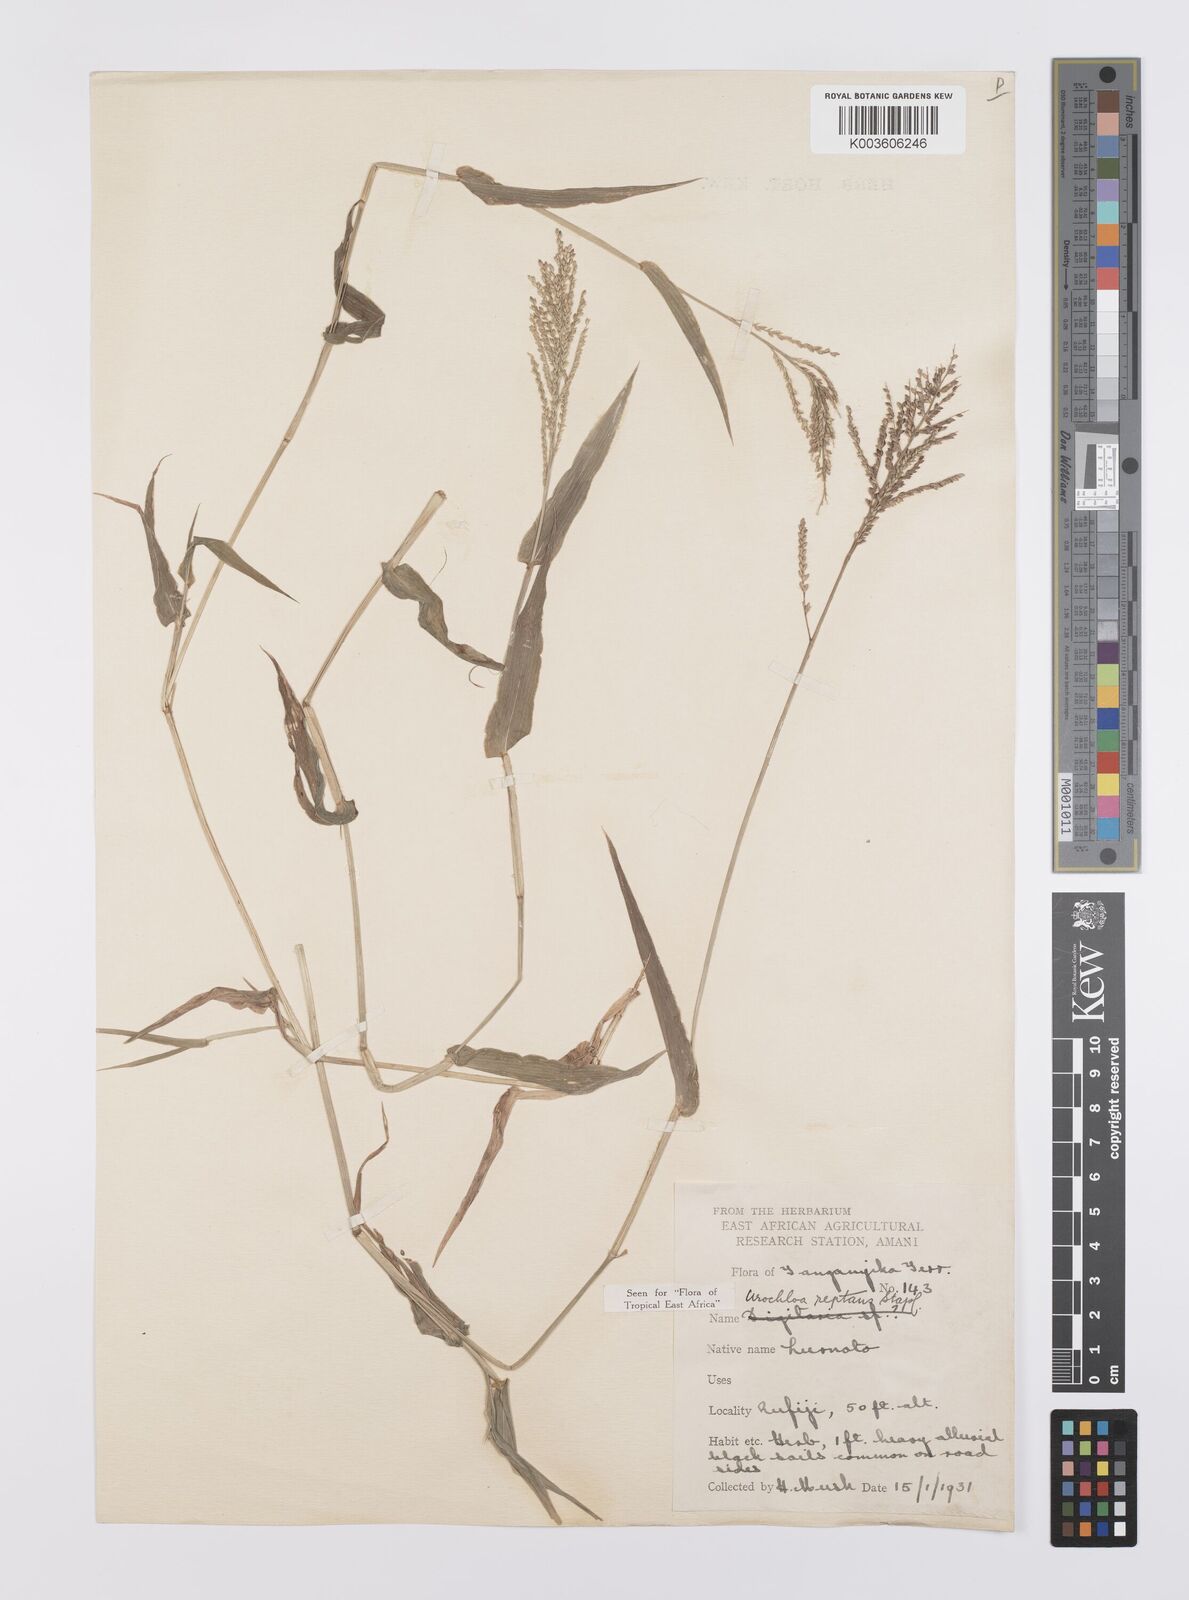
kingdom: Plantae
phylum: Tracheophyta
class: Liliopsida
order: Poales
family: Poaceae
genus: Urochloa
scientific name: Urochloa reptans
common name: Sprawling signalgrass
